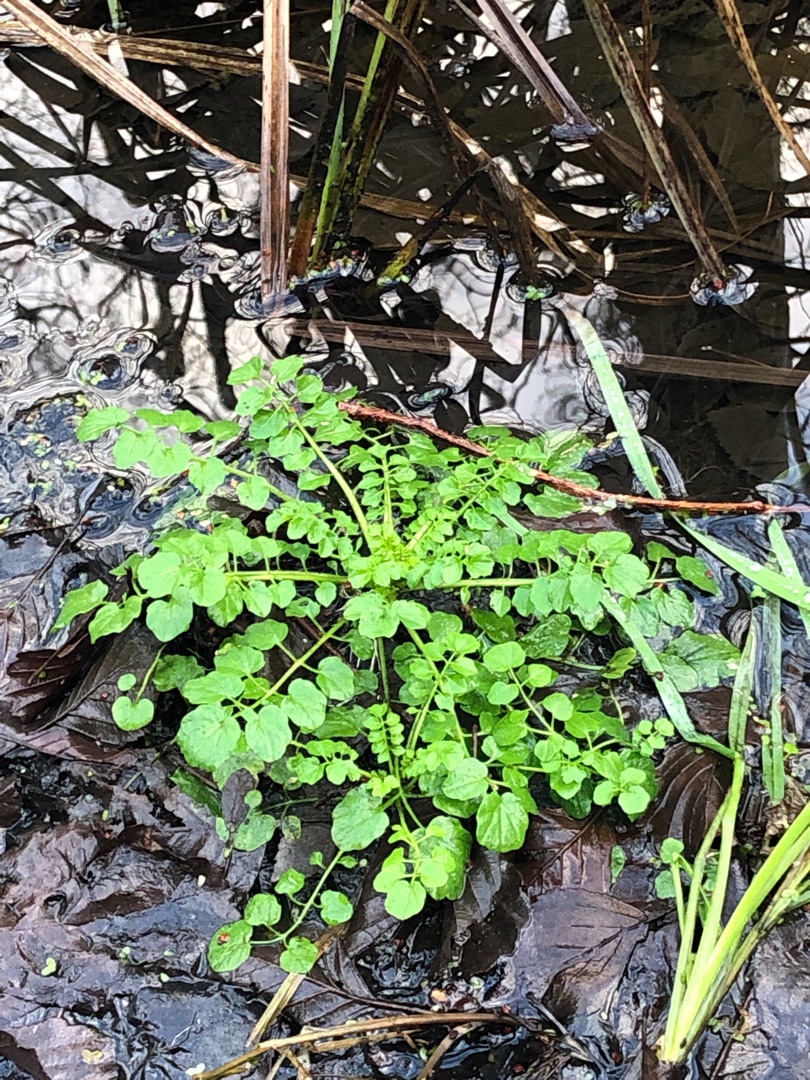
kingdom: Plantae
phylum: Tracheophyta
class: Magnoliopsida
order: Brassicales
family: Brassicaceae
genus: Cardamine
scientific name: Cardamine flexuosa
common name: Skov-springklap
